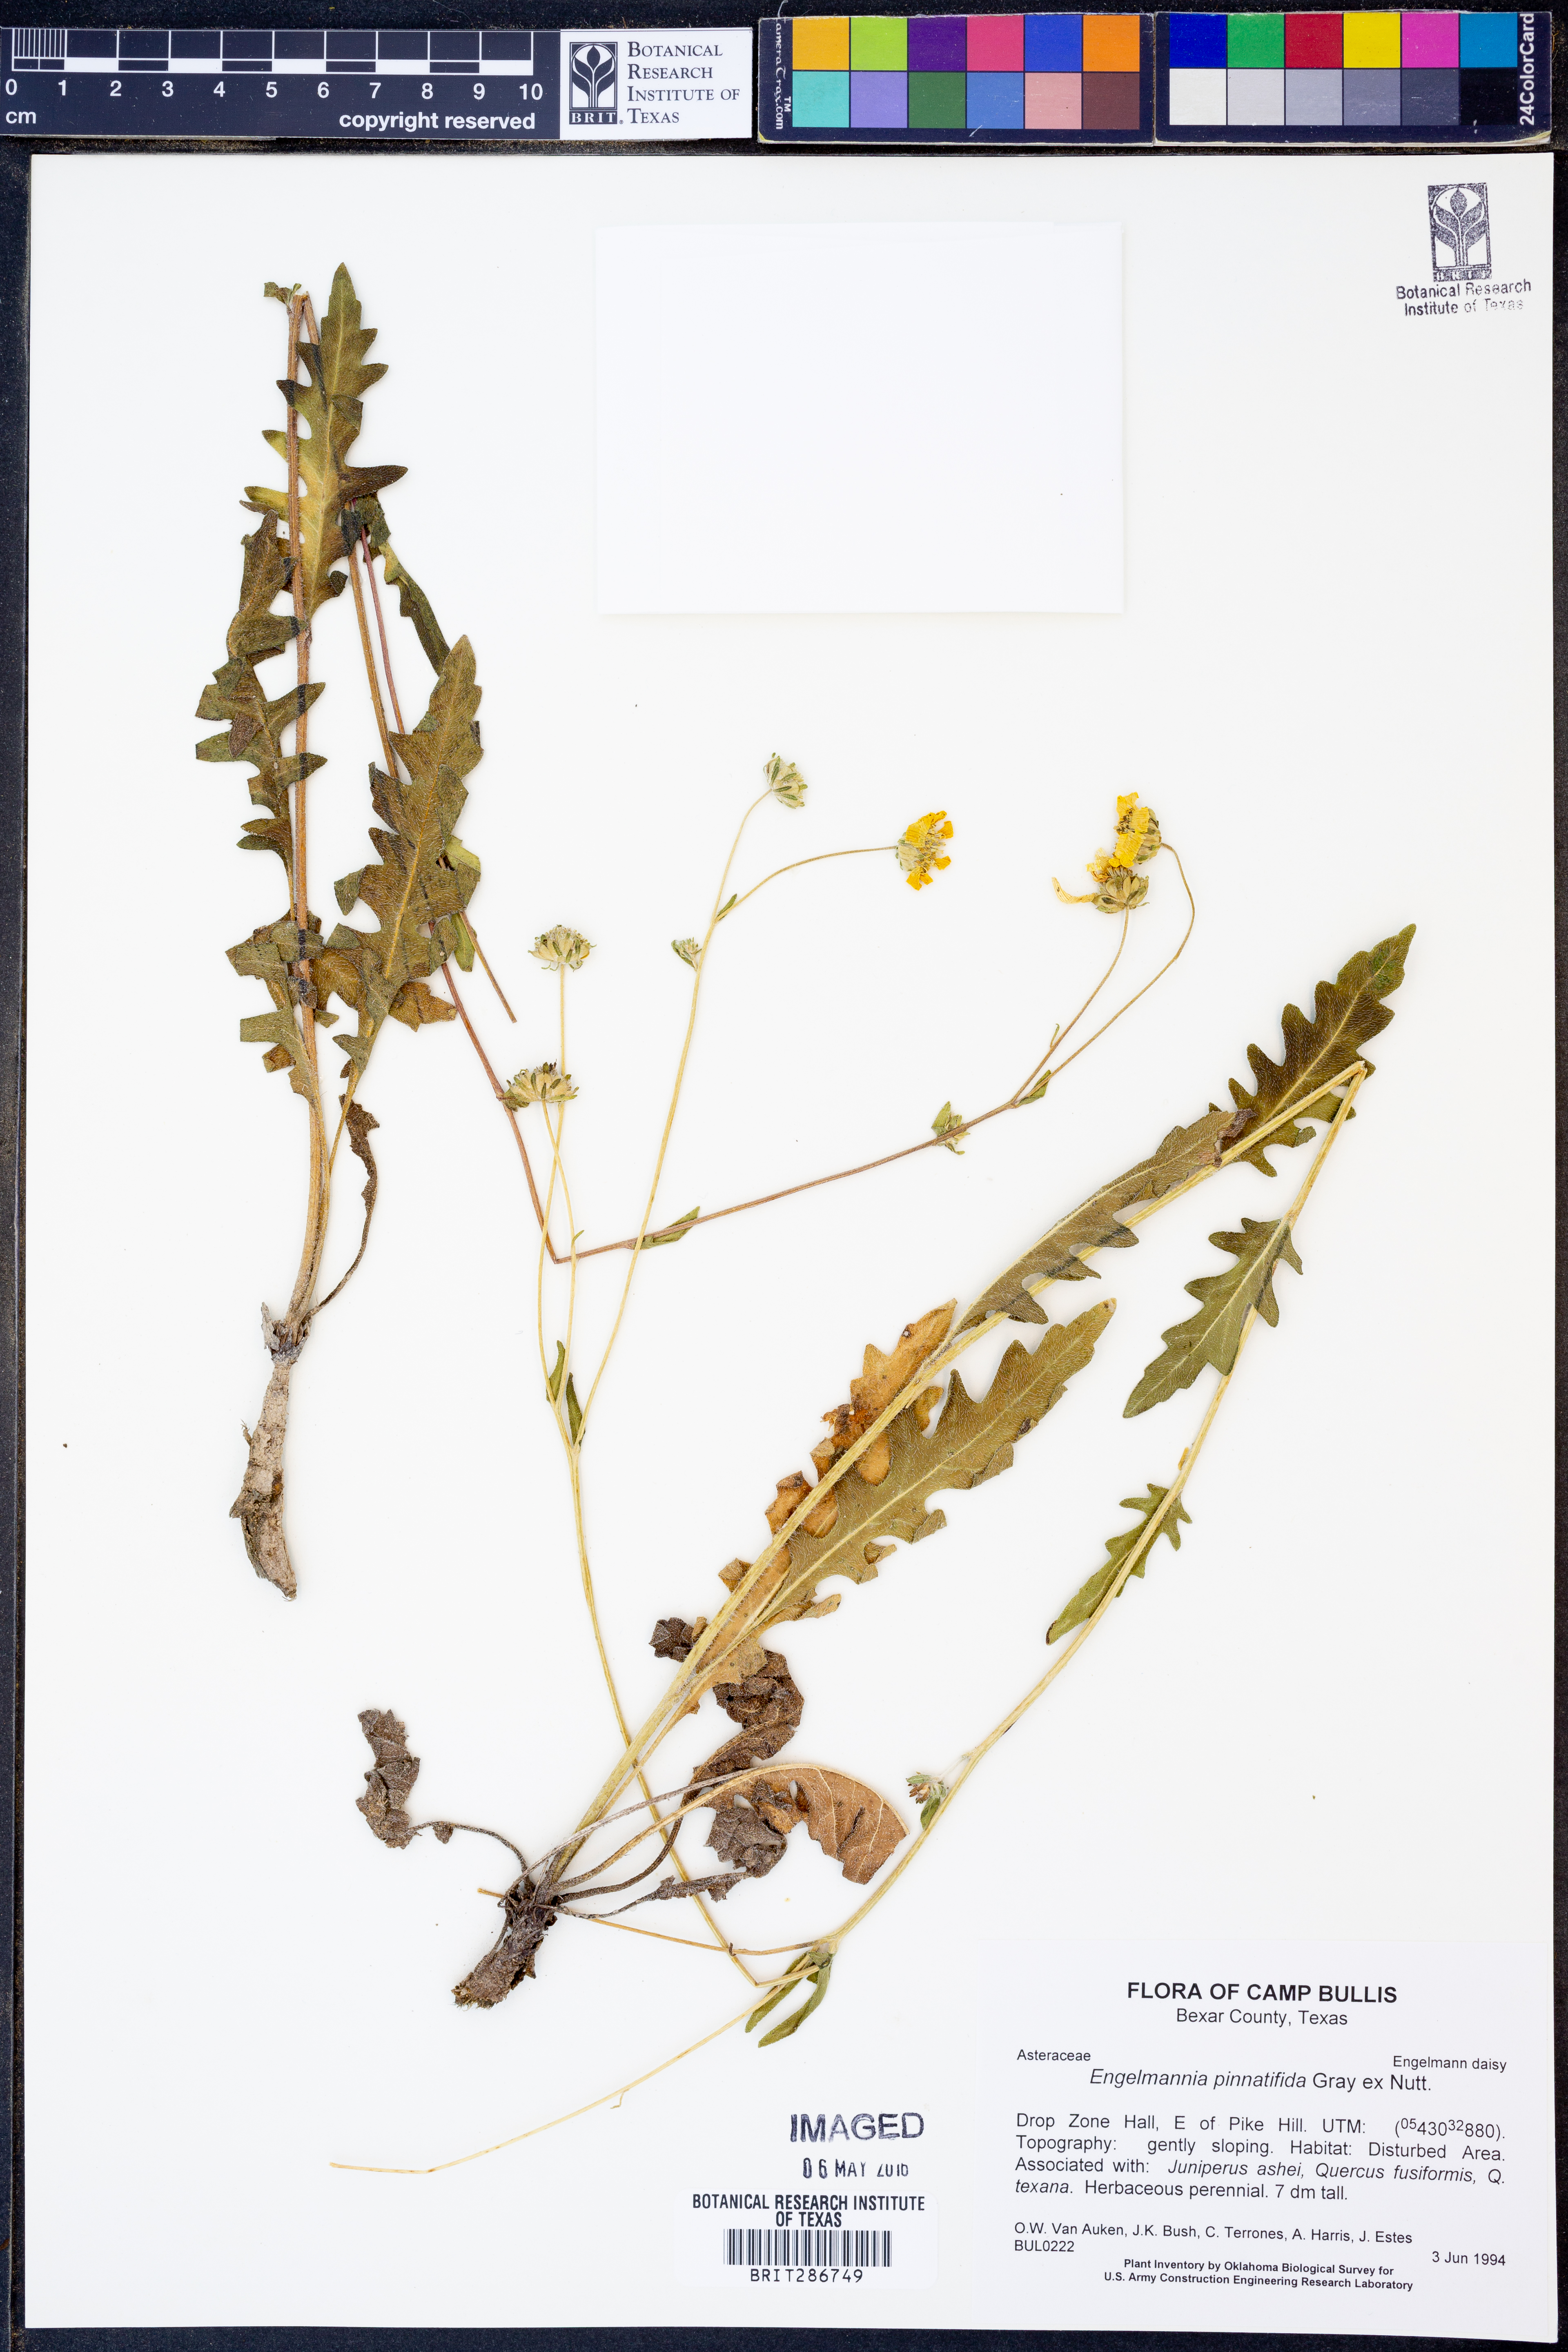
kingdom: Plantae
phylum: Tracheophyta
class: Magnoliopsida
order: Asterales
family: Asteraceae
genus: Engelmannia
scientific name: Engelmannia peristenia
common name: Engelmann's daisy
